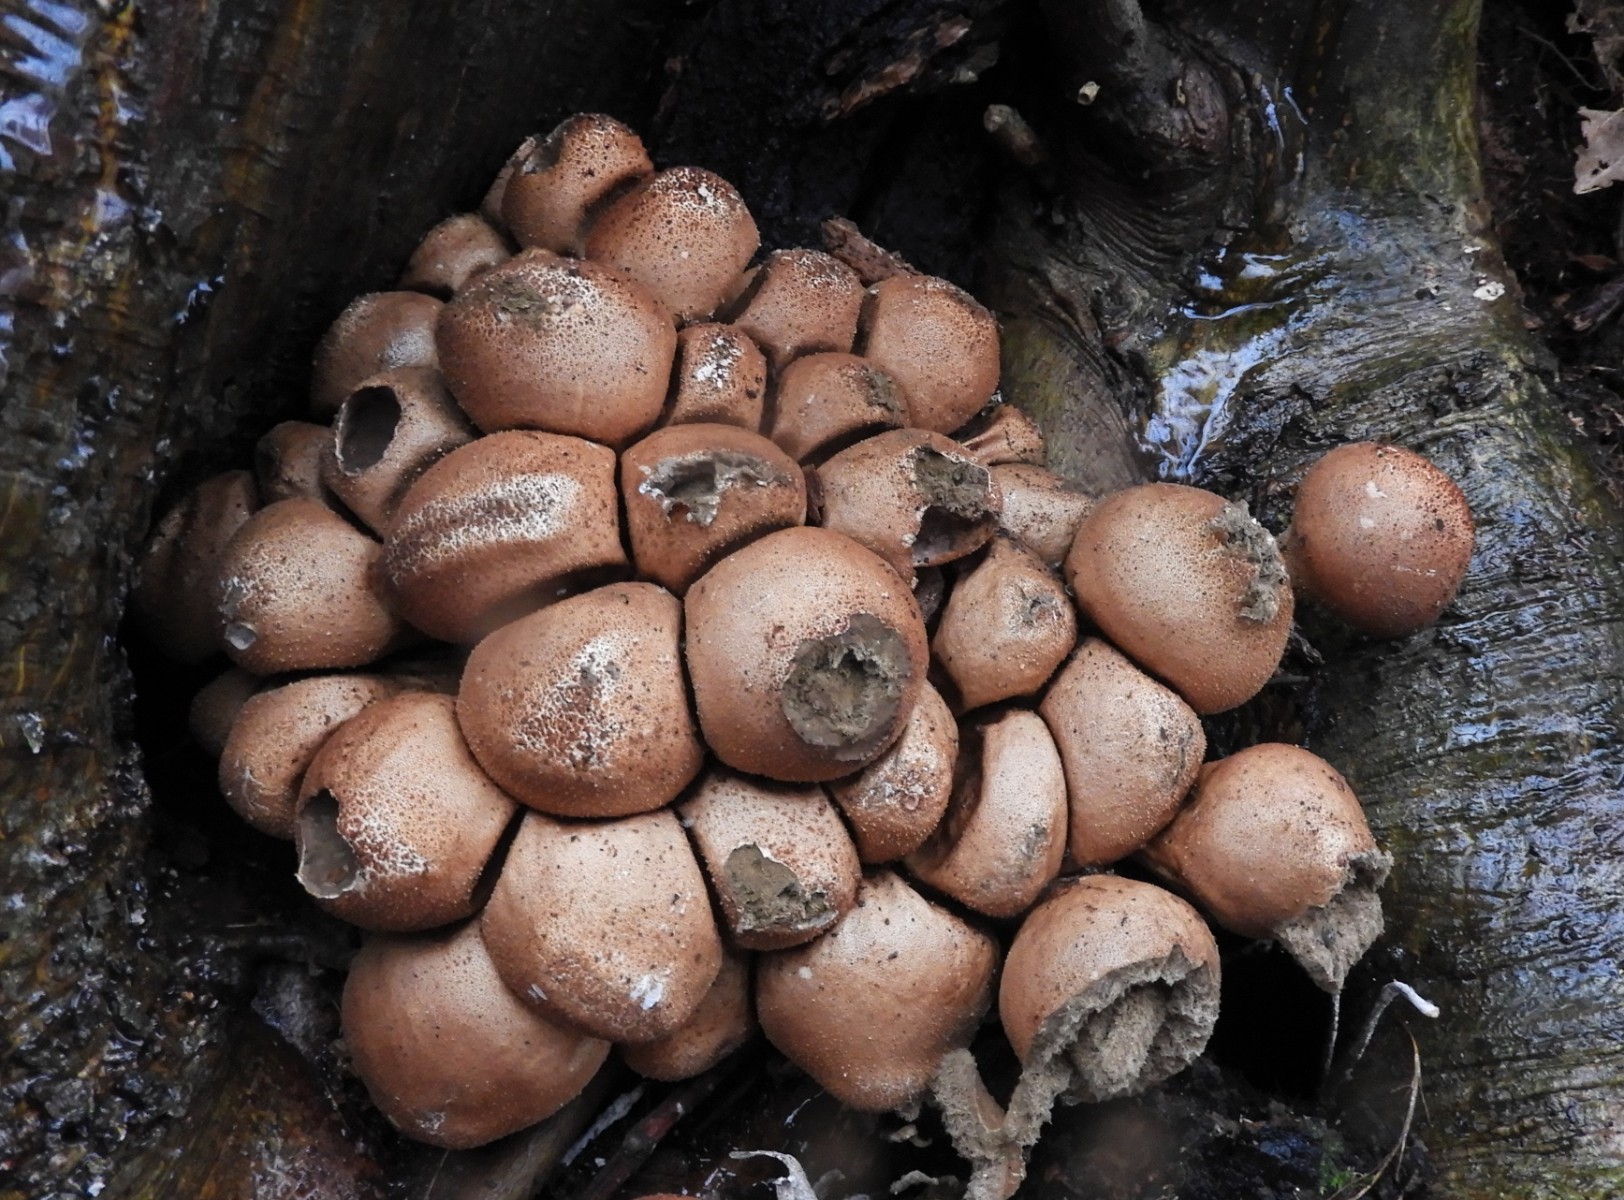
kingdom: Fungi
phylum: Basidiomycota
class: Agaricomycetes
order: Agaricales
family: Lycoperdaceae
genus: Apioperdon
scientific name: Apioperdon pyriforme
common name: pære-støvbold
